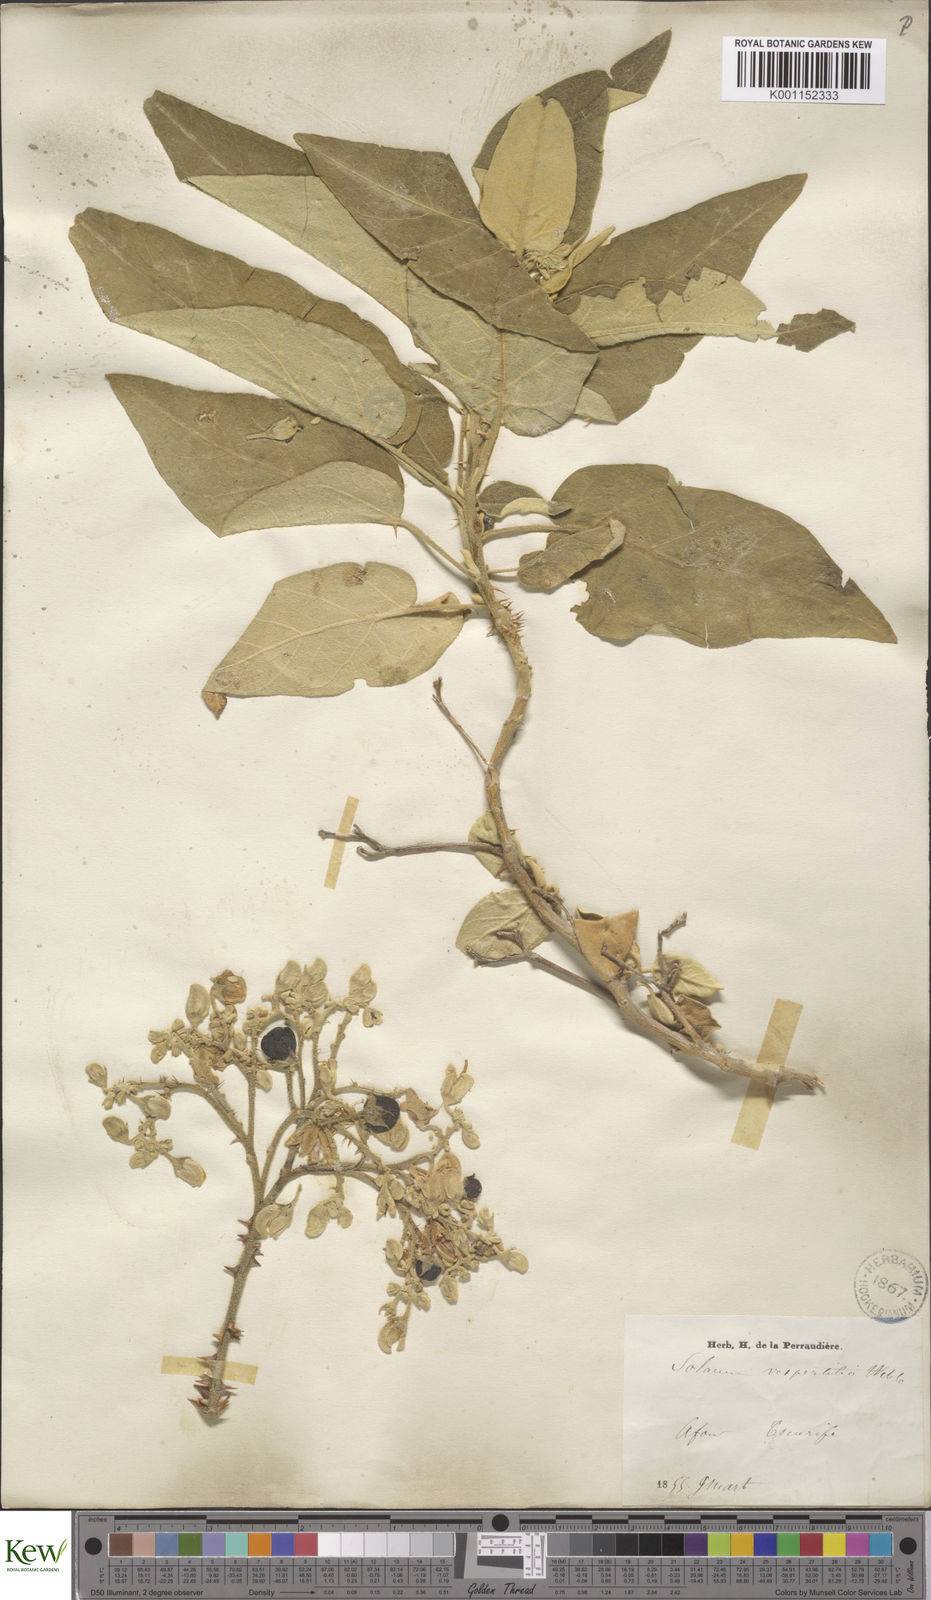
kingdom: Plantae
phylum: Tracheophyta
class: Magnoliopsida
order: Solanales
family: Solanaceae
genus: Solanum
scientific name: Solanum vespertilio
